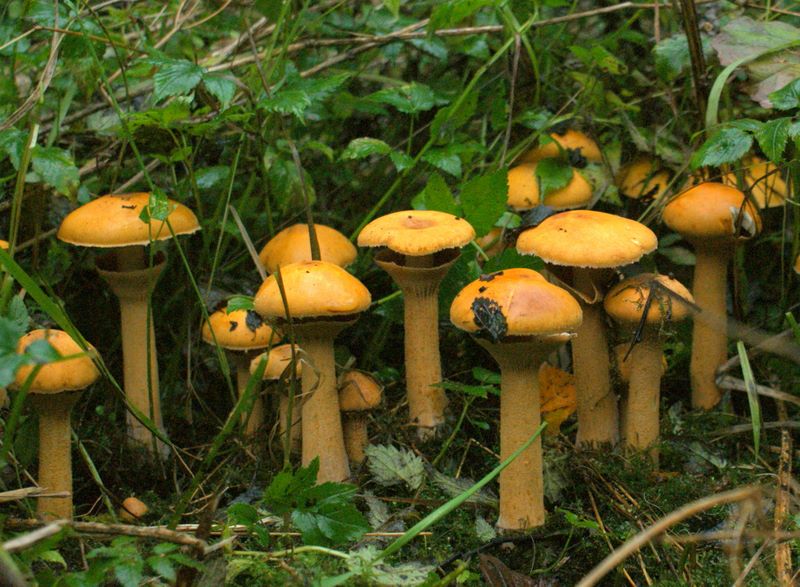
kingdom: Fungi
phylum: Basidiomycota
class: Agaricomycetes
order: Agaricales
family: Tricholomataceae
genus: Phaeolepiota
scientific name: Phaeolepiota aurea
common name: gyldenhat
